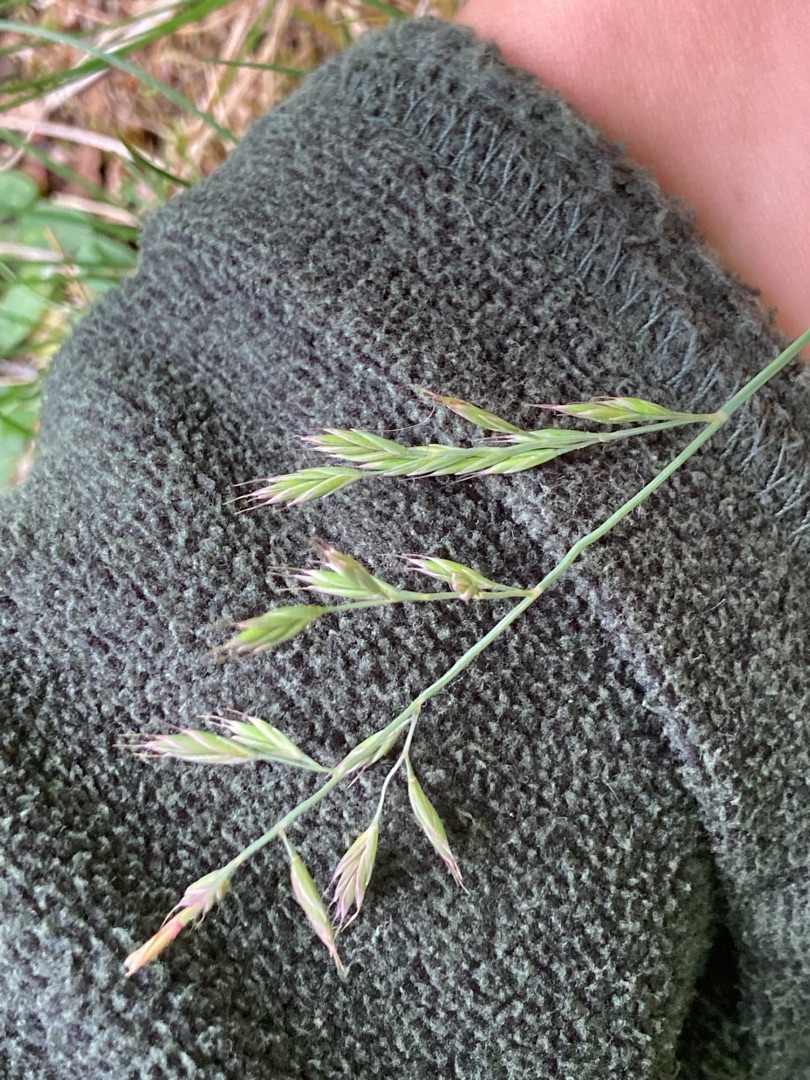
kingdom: Plantae
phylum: Tracheophyta
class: Liliopsida
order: Poales
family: Poaceae
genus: Festuca
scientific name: Festuca trachyphylla
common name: Bakke-svingel
